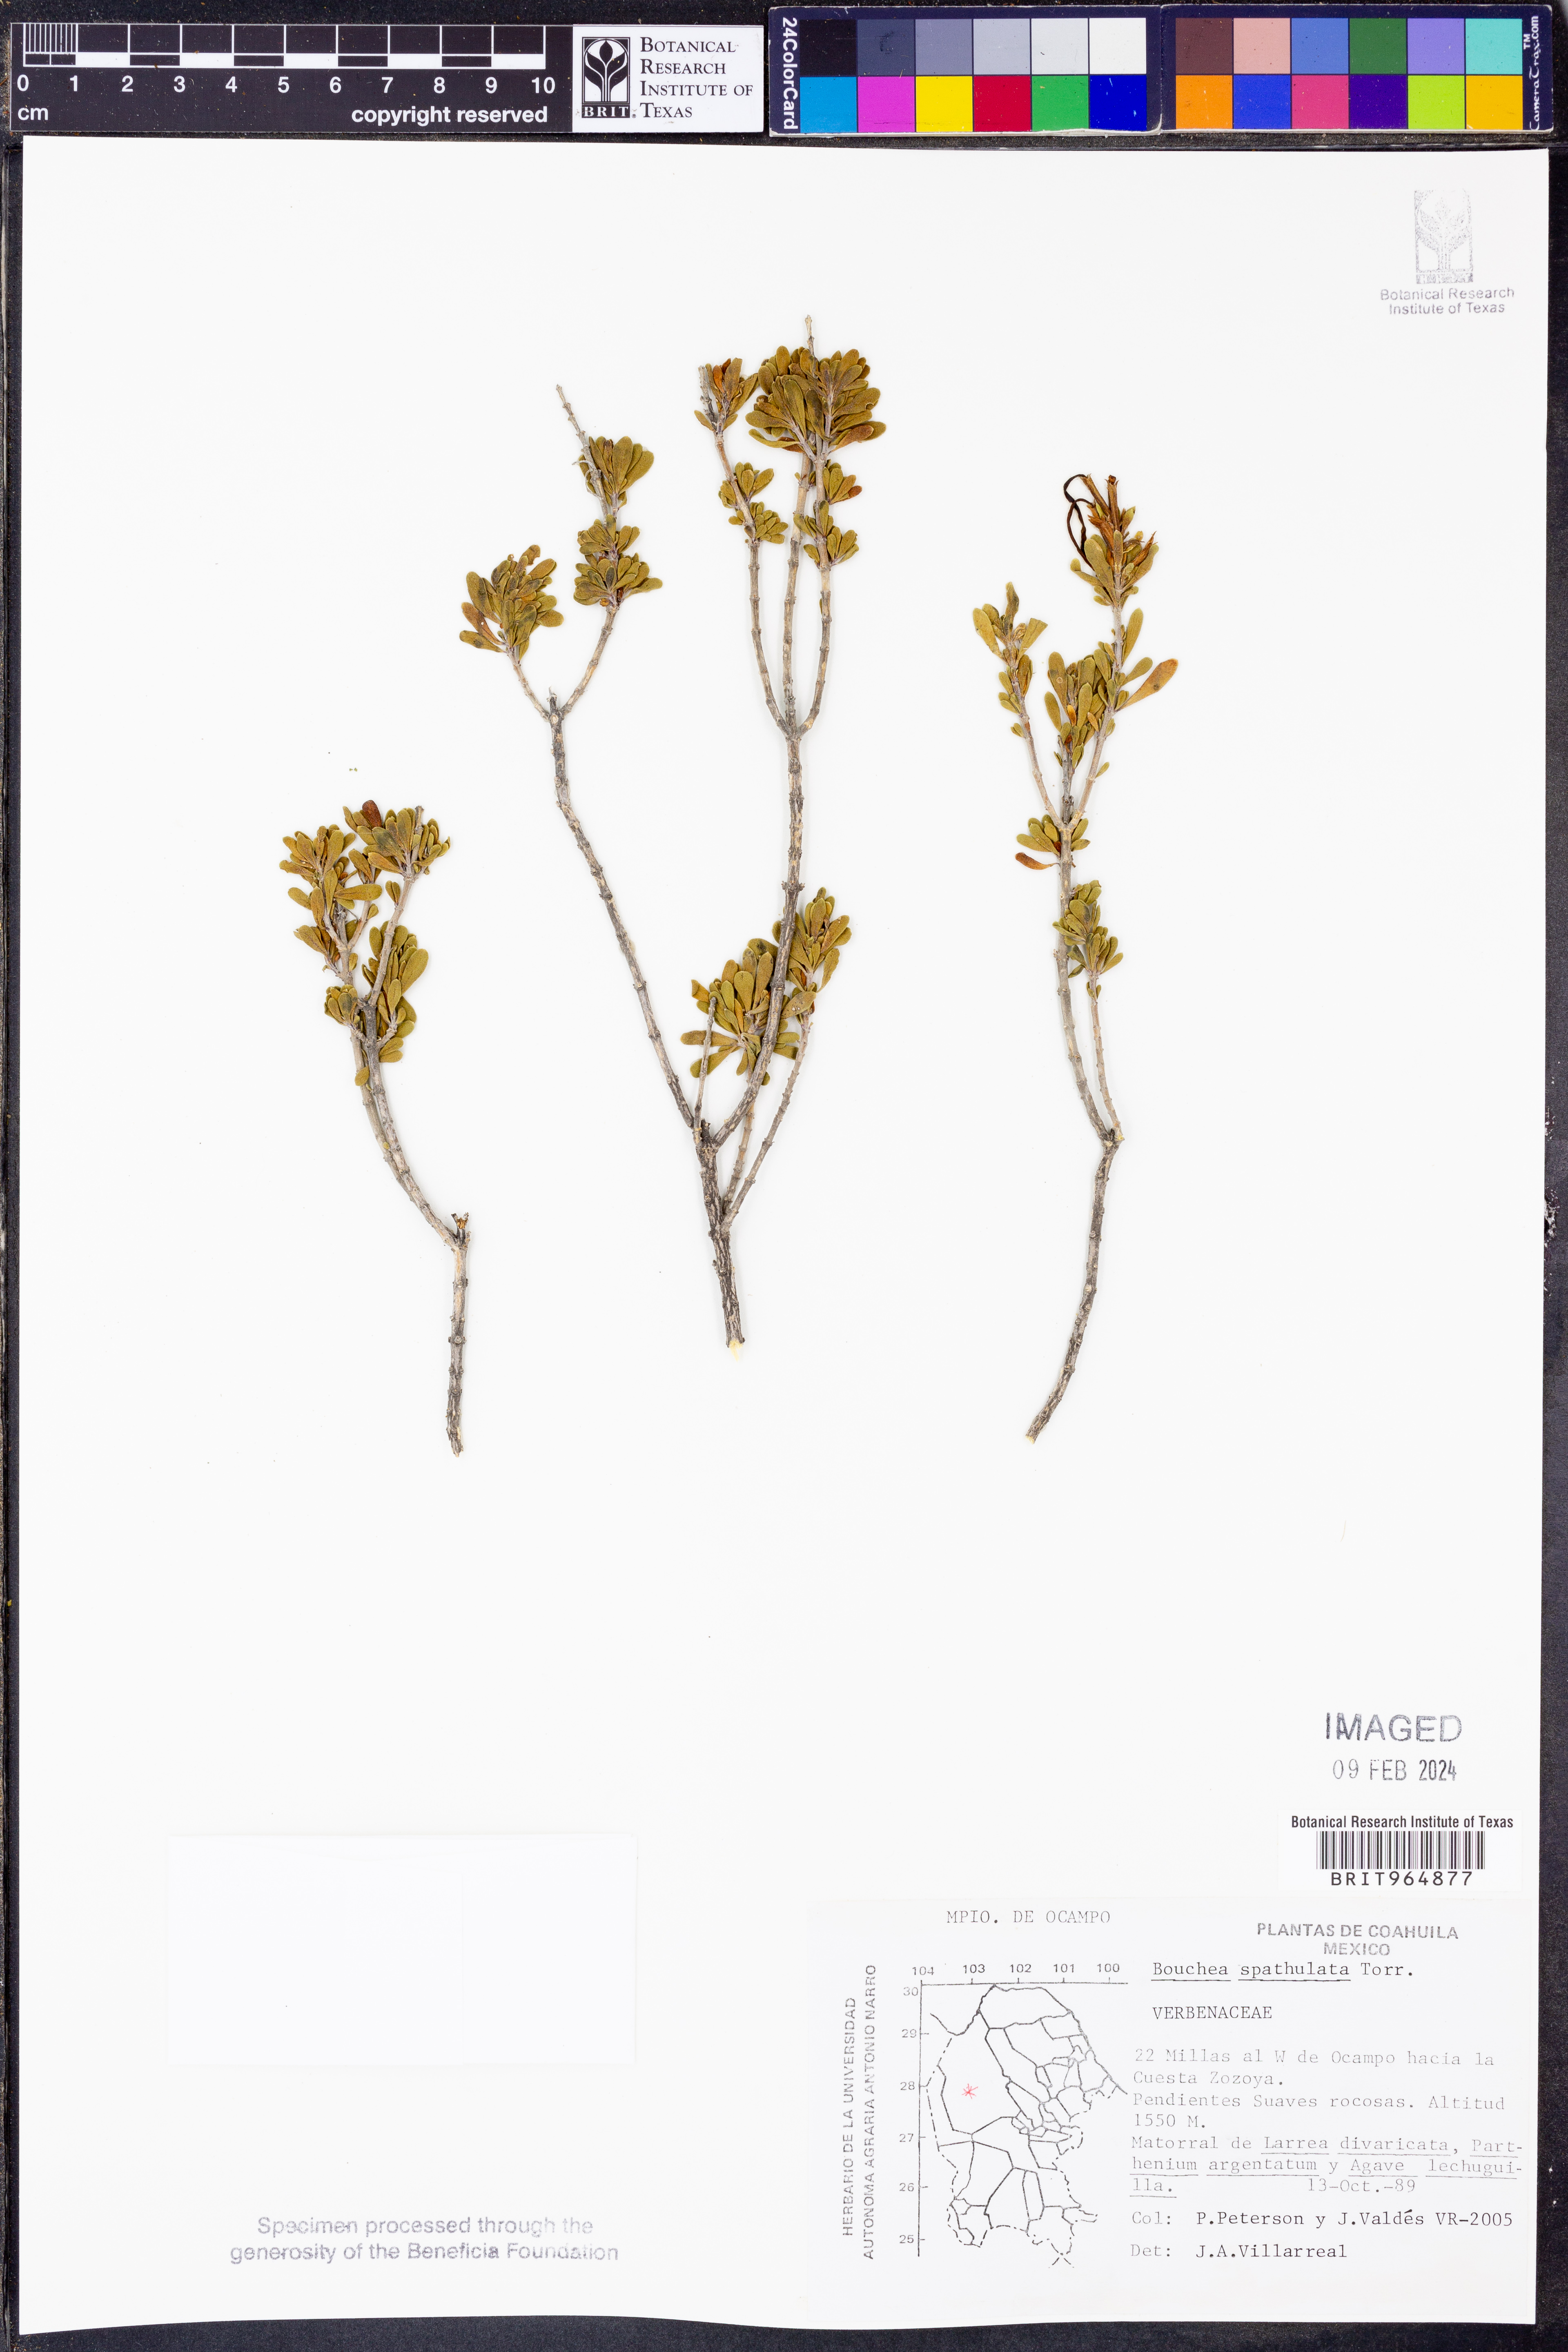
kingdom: Plantae
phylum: Tracheophyta
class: Magnoliopsida
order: Lamiales
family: Verbenaceae
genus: Bouchea
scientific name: Bouchea
